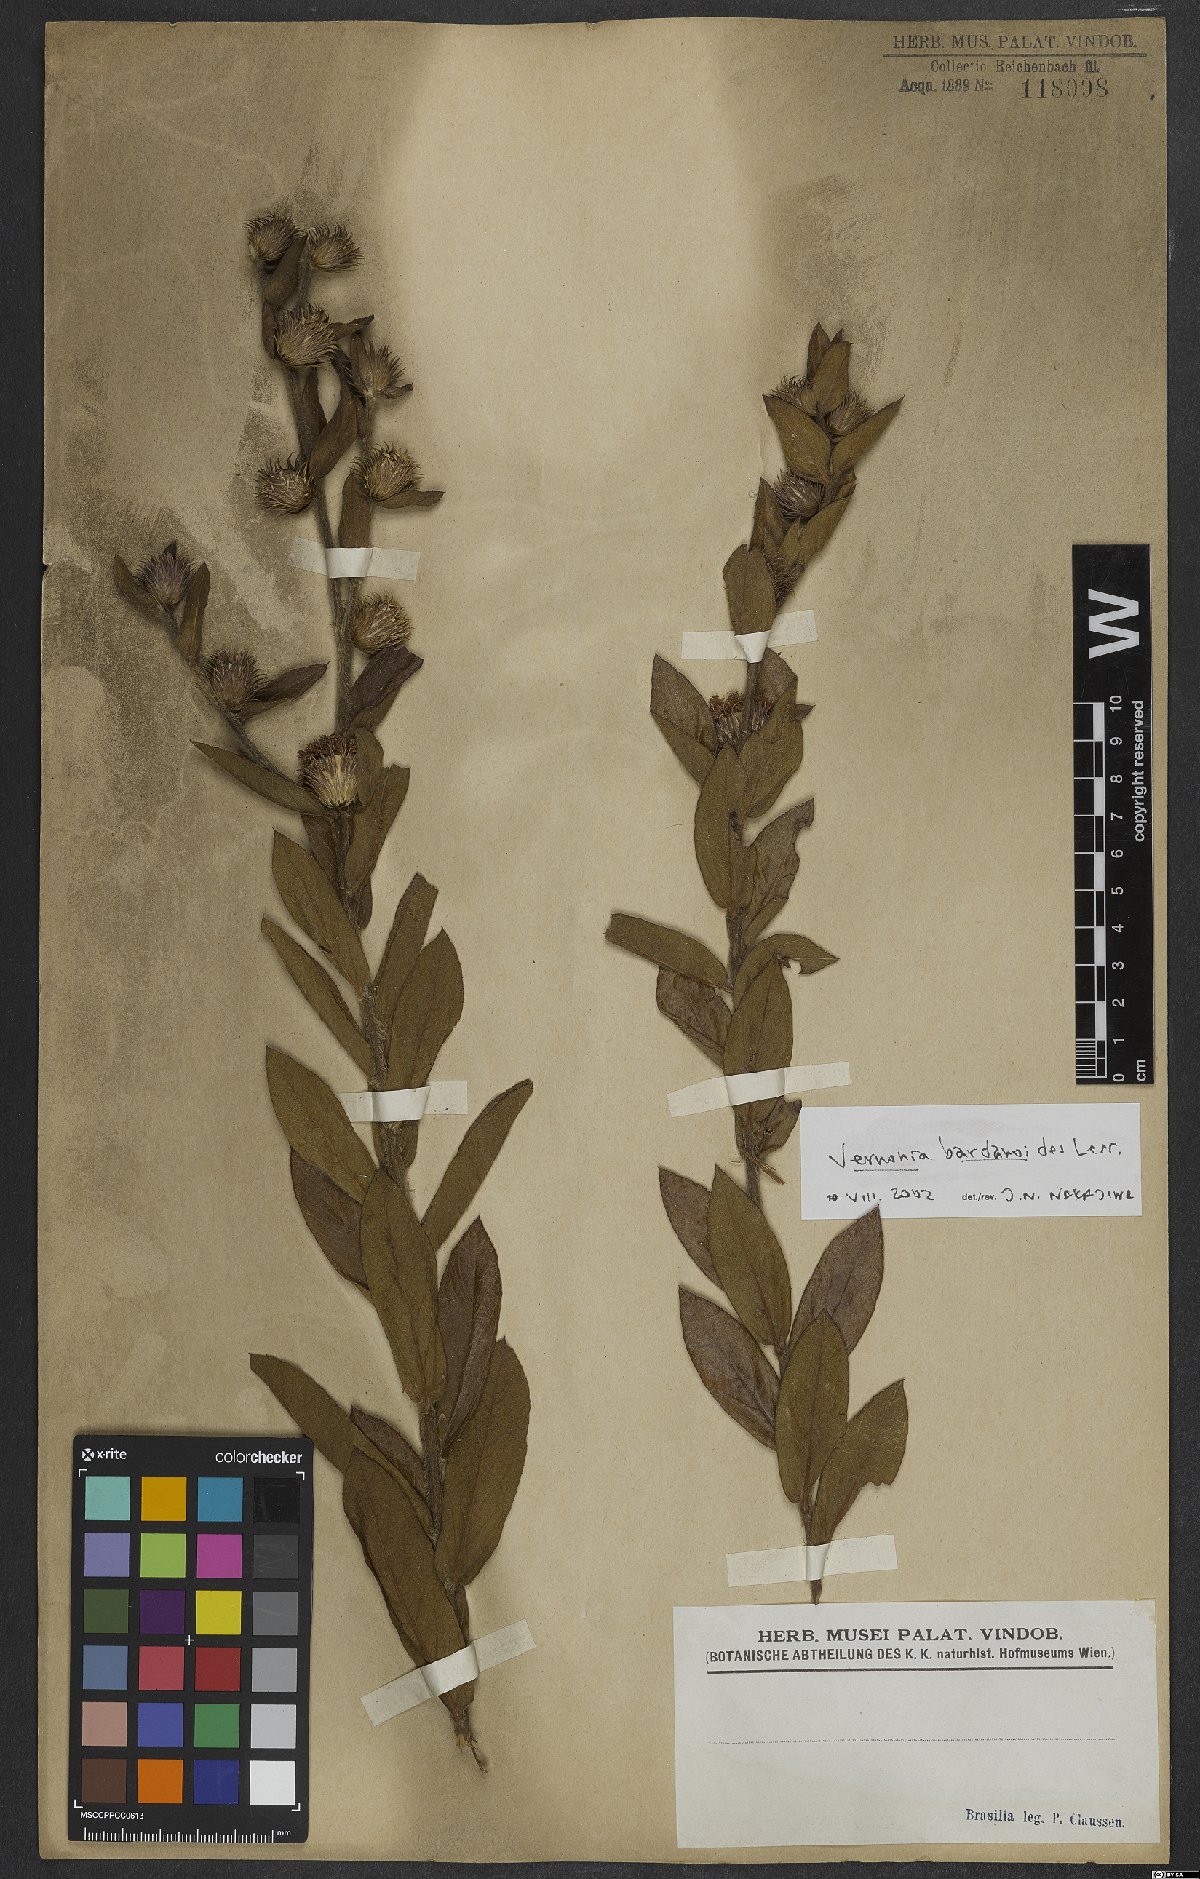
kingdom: Plantae
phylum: Tracheophyta
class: Magnoliopsida
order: Asterales
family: Asteraceae
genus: Lessingianthus
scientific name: Lessingianthus bardanioides
